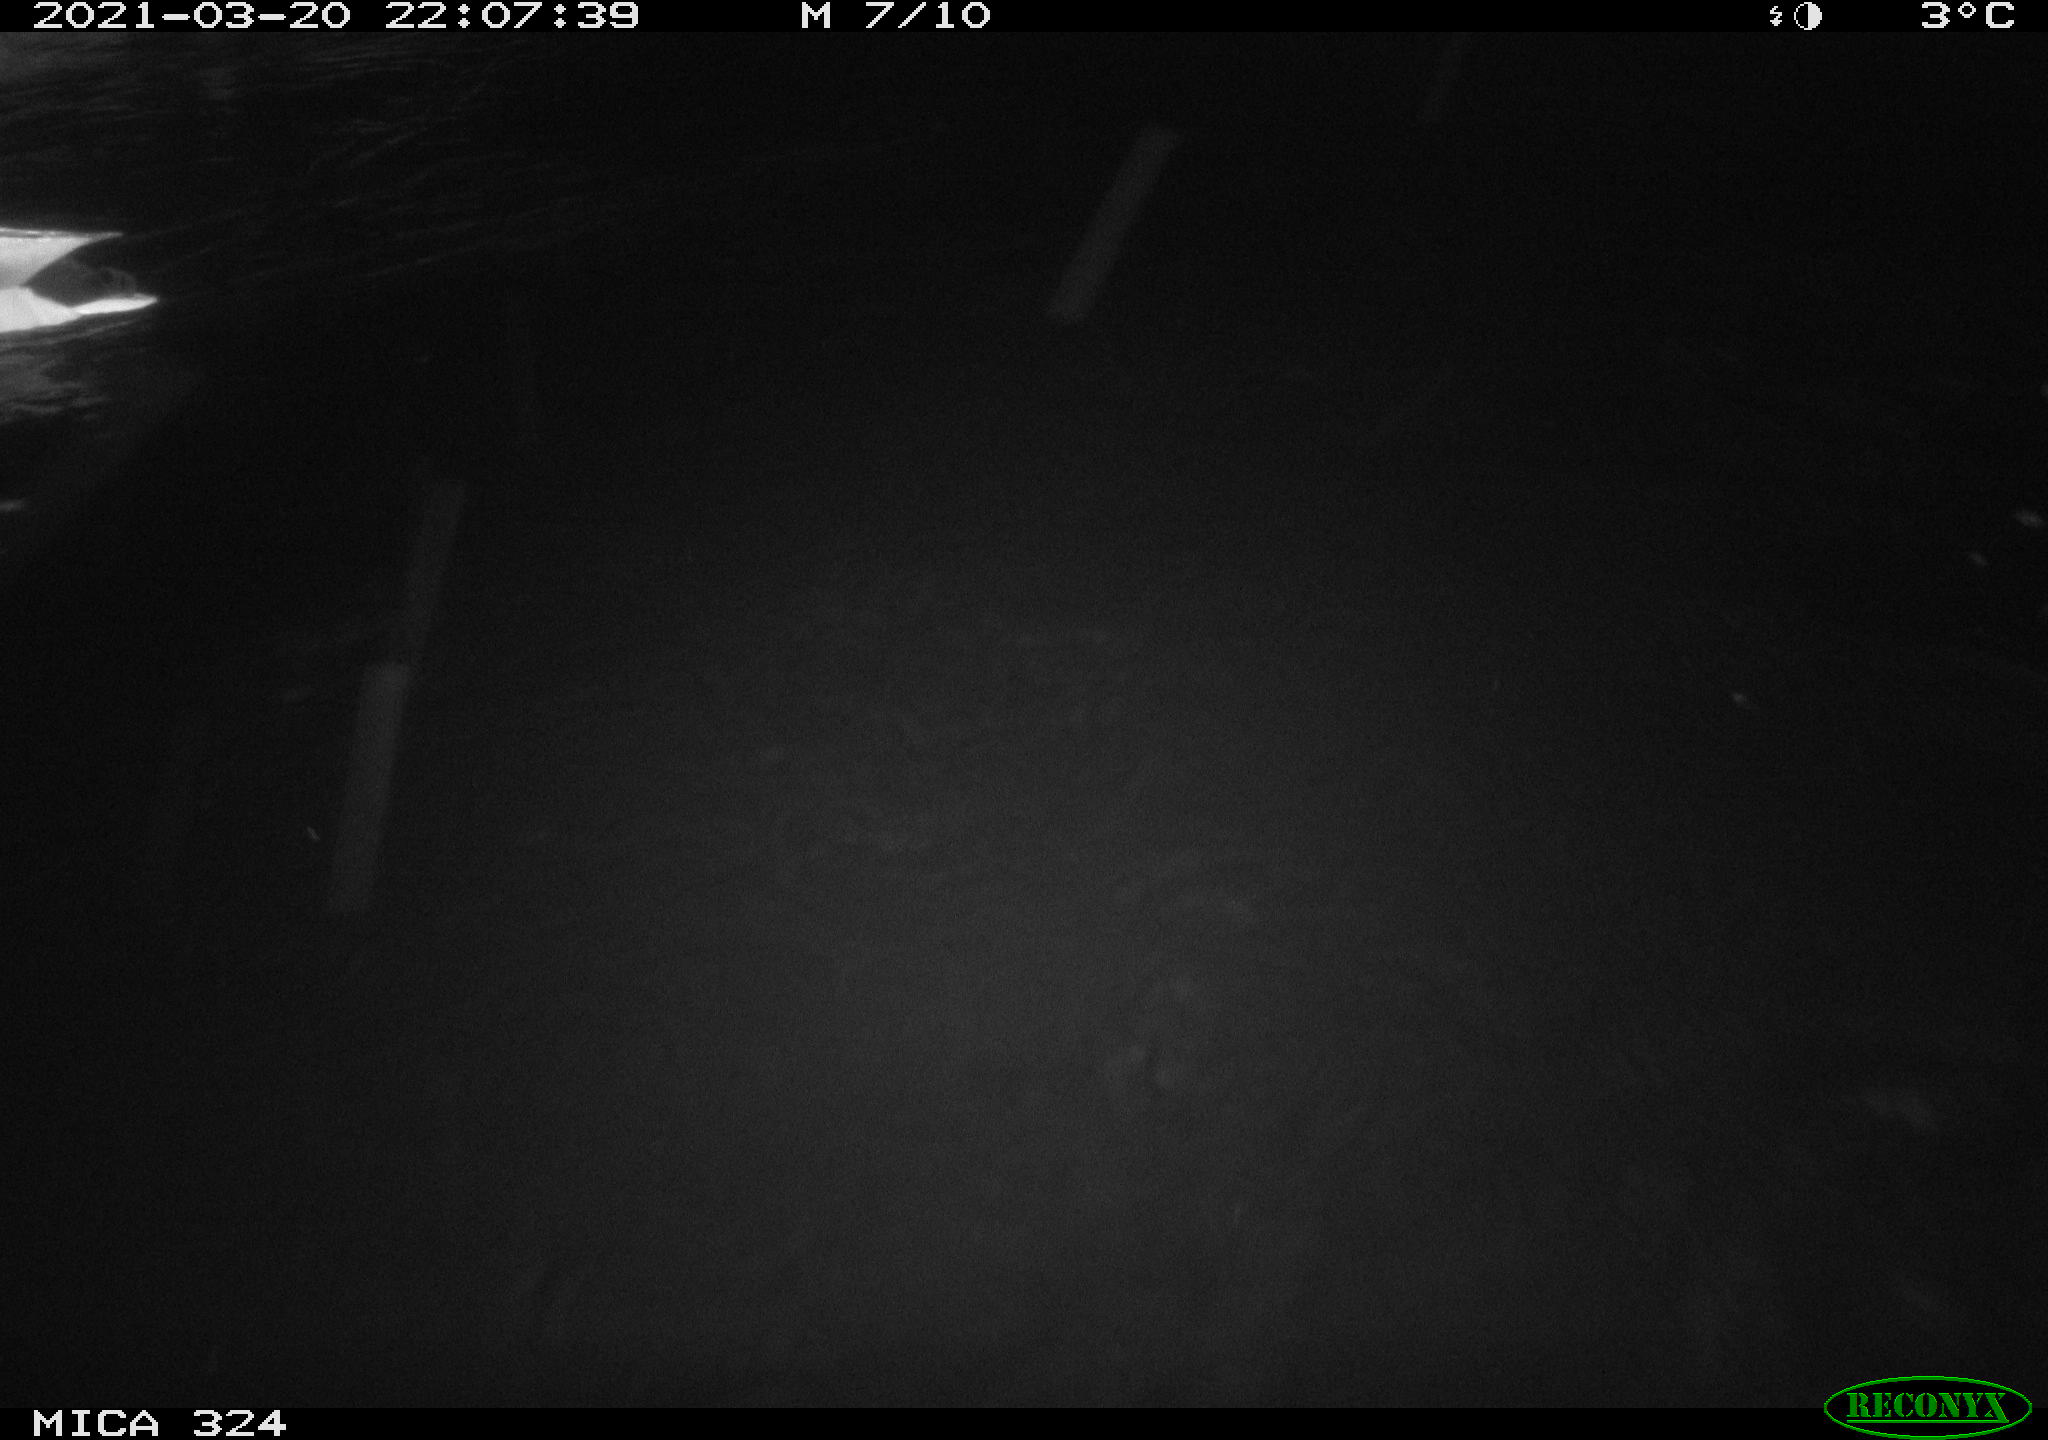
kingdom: Animalia
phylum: Chordata
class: Aves
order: Anseriformes
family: Anatidae
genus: Anas
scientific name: Anas platyrhynchos
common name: Mallard
